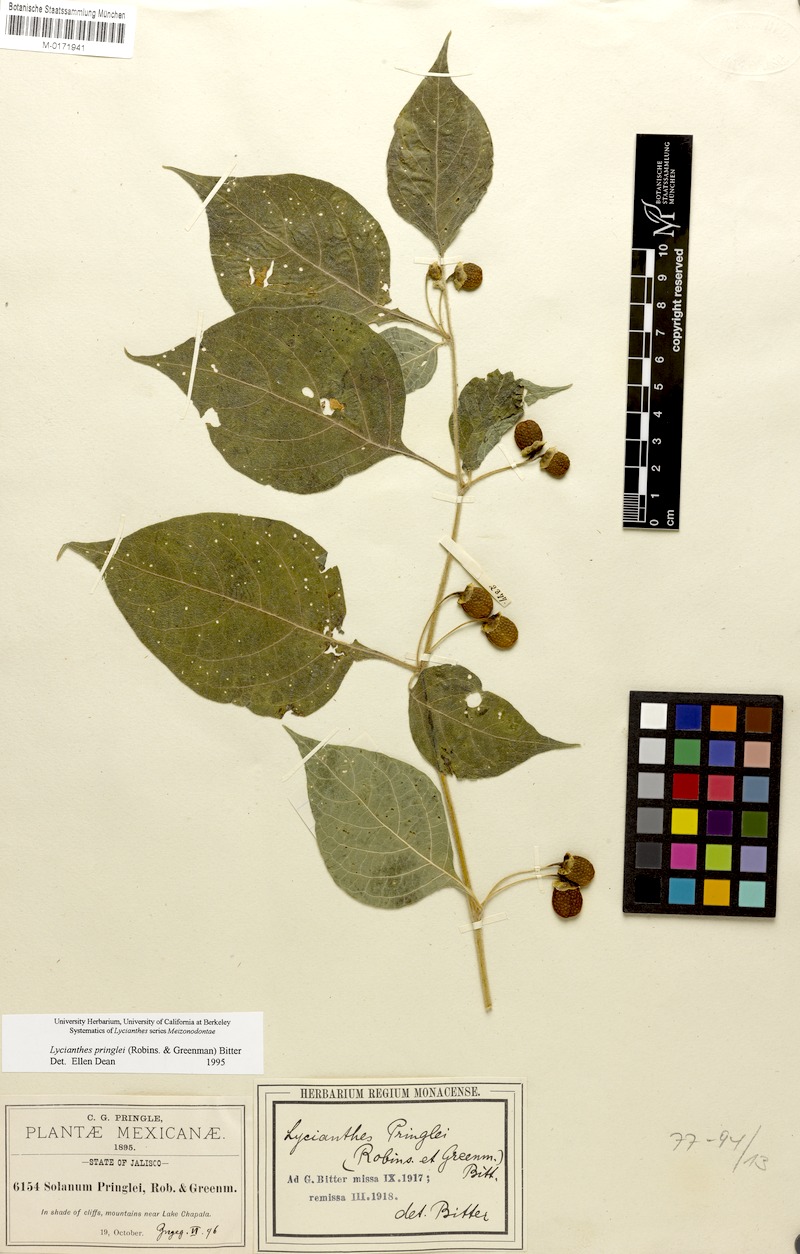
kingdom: Plantae
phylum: Tracheophyta
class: Magnoliopsida
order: Solanales
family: Solanaceae
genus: Lycianthes
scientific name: Lycianthes pringlei
